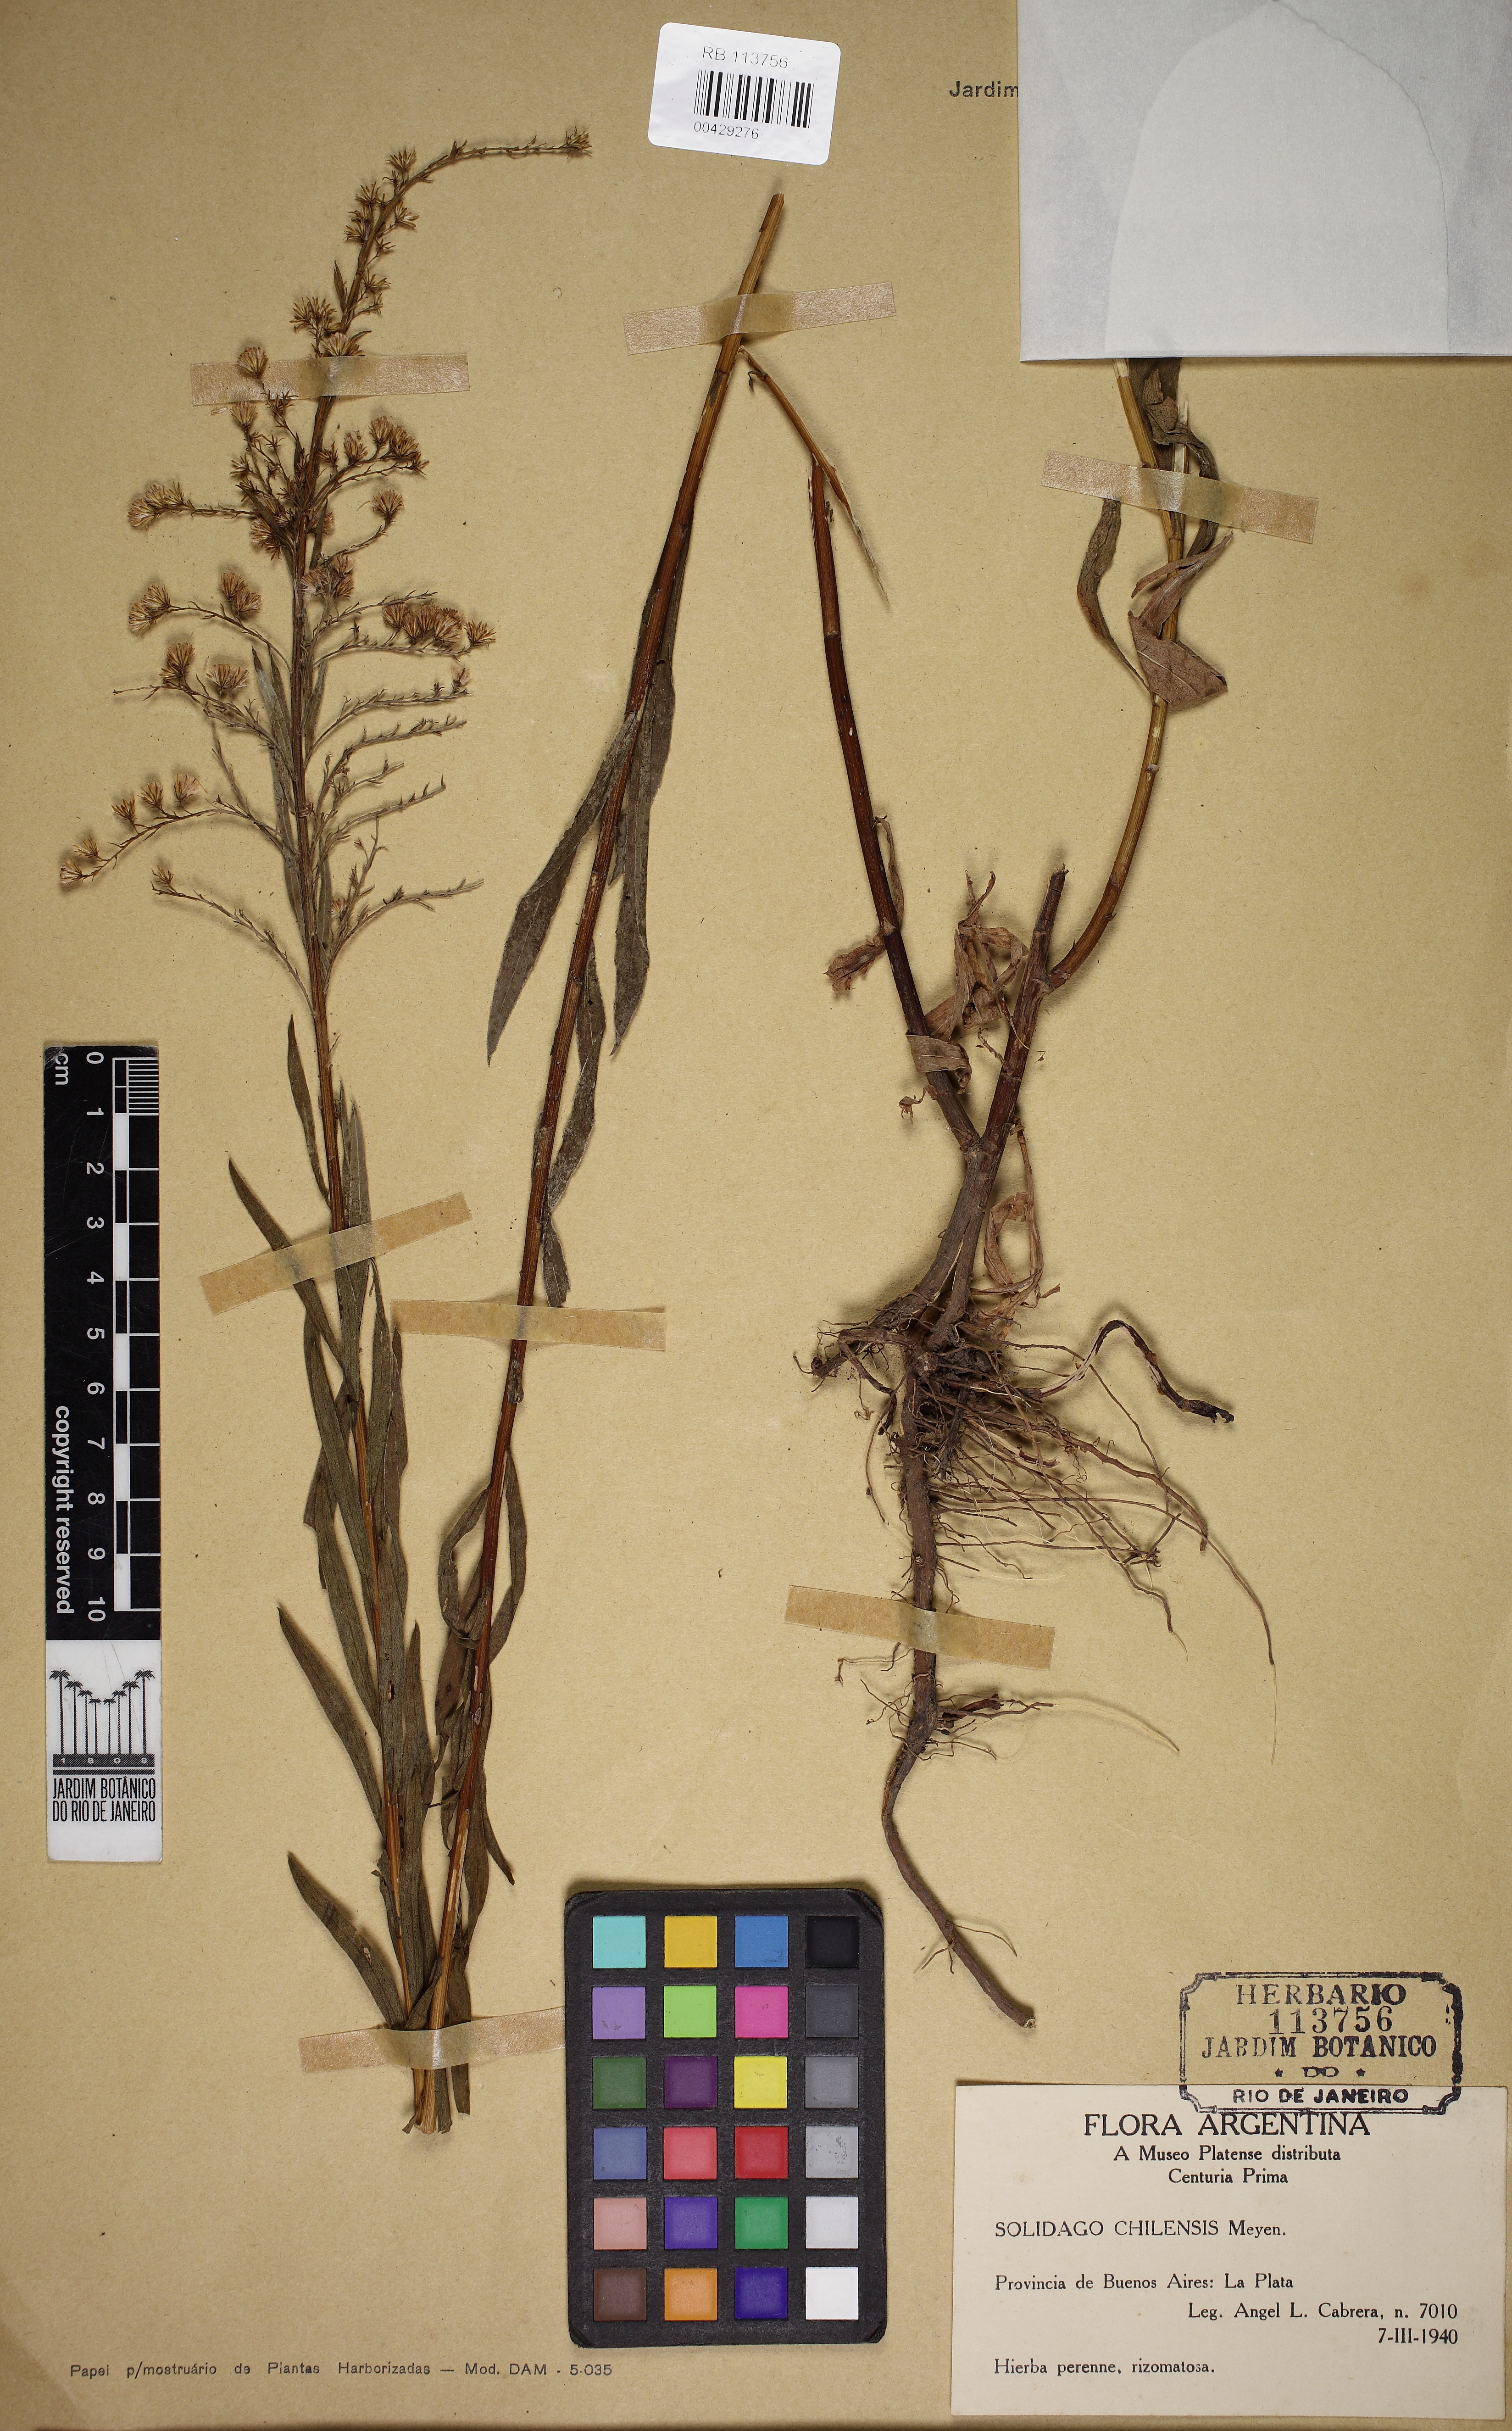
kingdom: Plantae
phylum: Tracheophyta
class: Magnoliopsida
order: Asterales
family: Asteraceae
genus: Solidago
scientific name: Solidago chilensis
